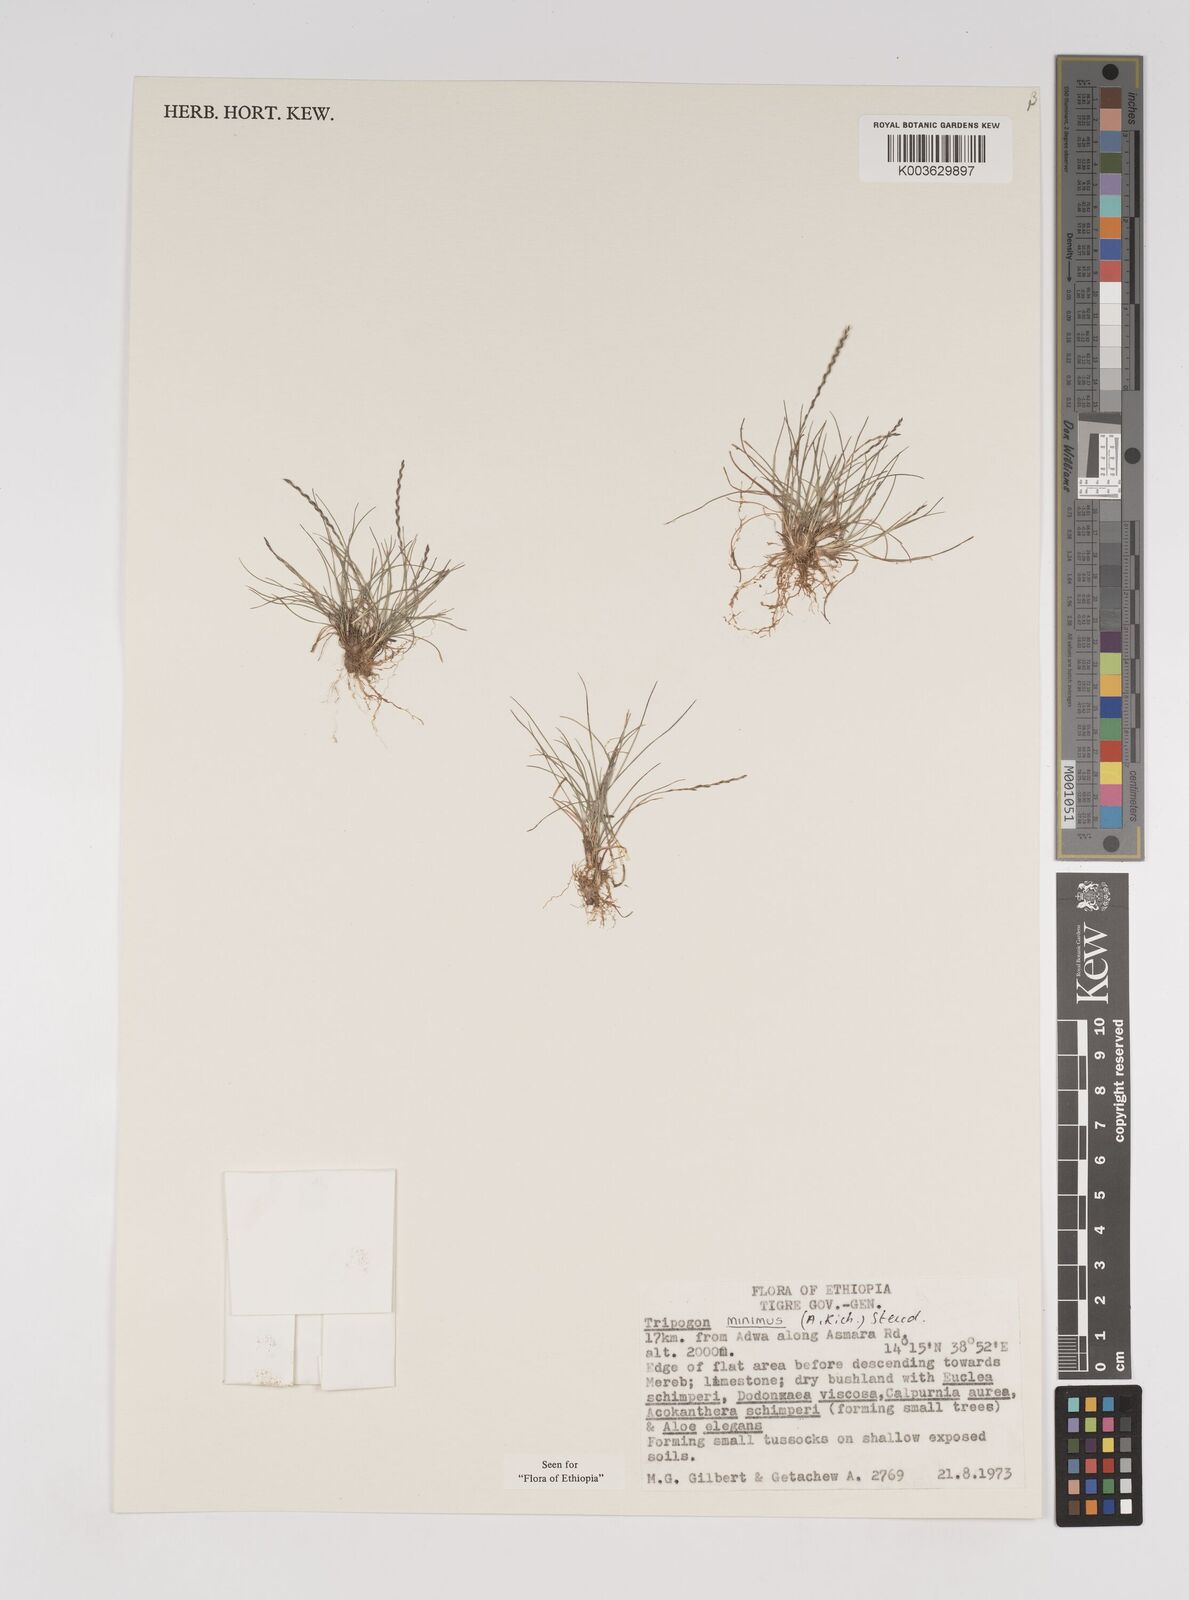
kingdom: Plantae
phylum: Tracheophyta
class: Liliopsida
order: Poales
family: Poaceae
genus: Tripogonella
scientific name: Tripogonella minima
